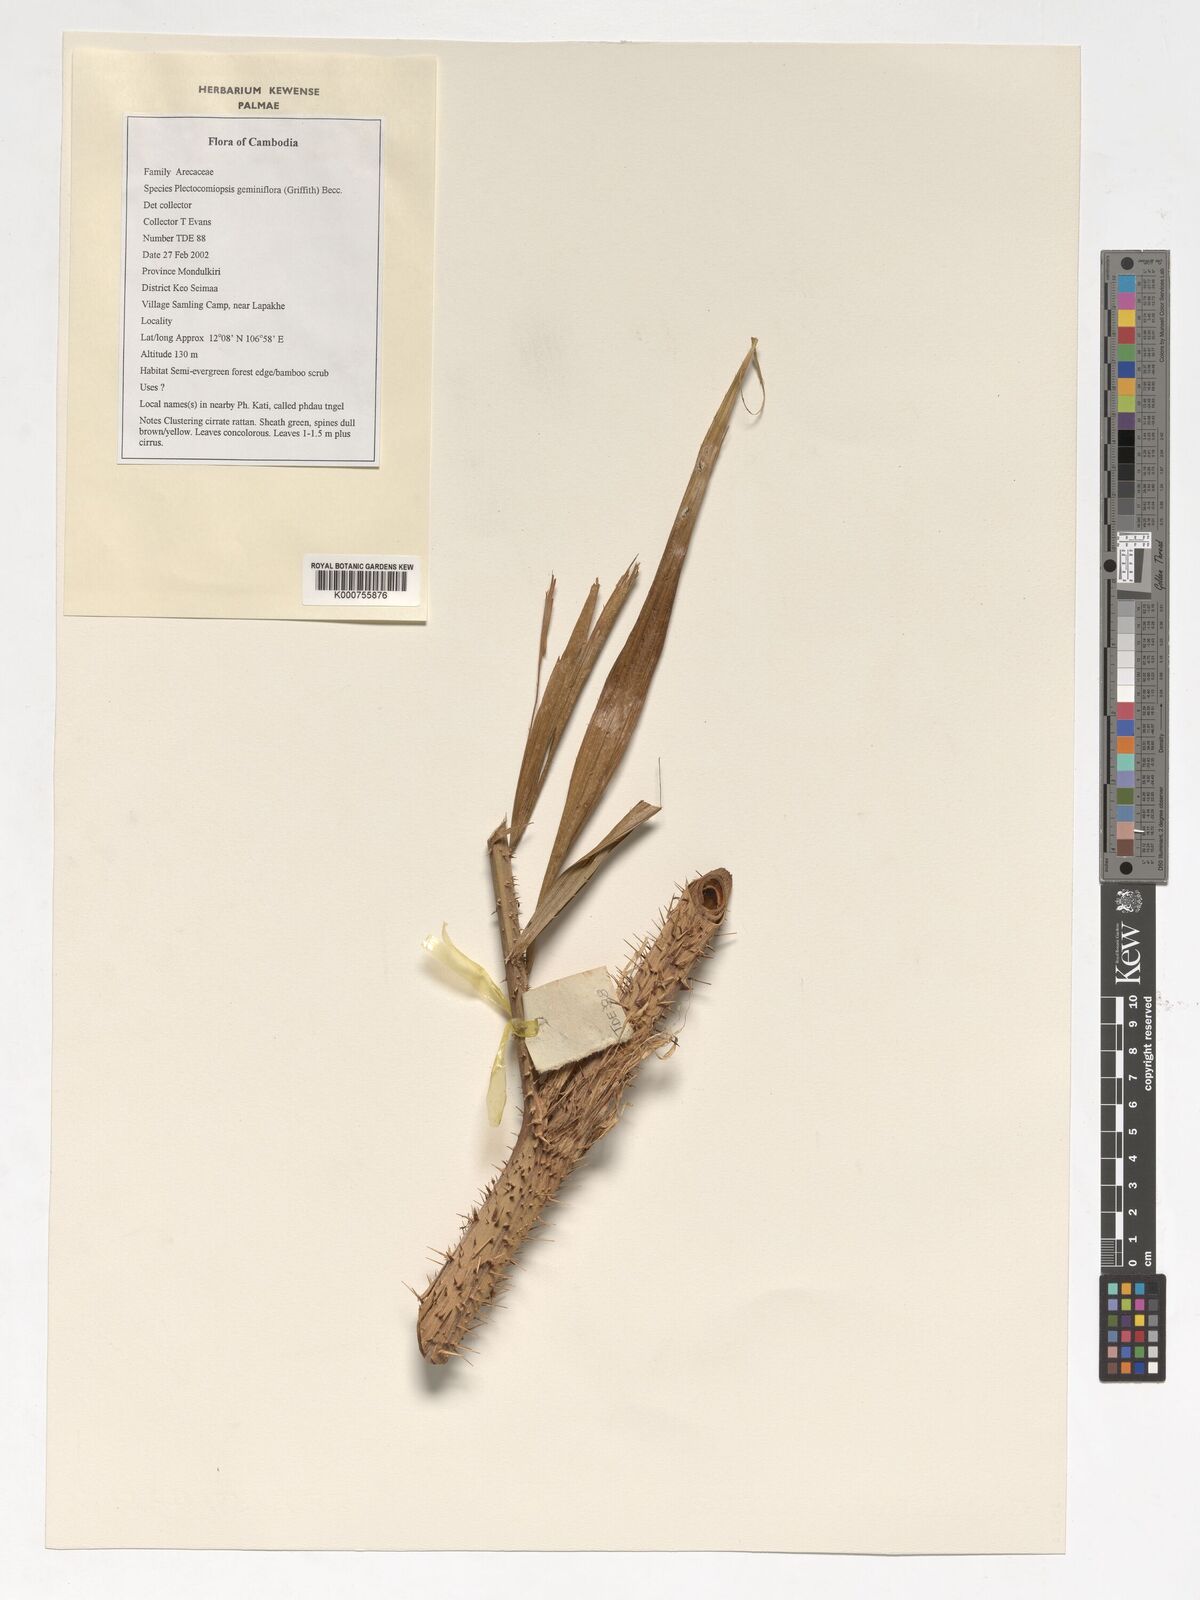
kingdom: Plantae
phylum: Tracheophyta
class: Liliopsida
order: Arecales
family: Arecaceae
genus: Plectocomiopsis
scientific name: Plectocomiopsis geminiflora
